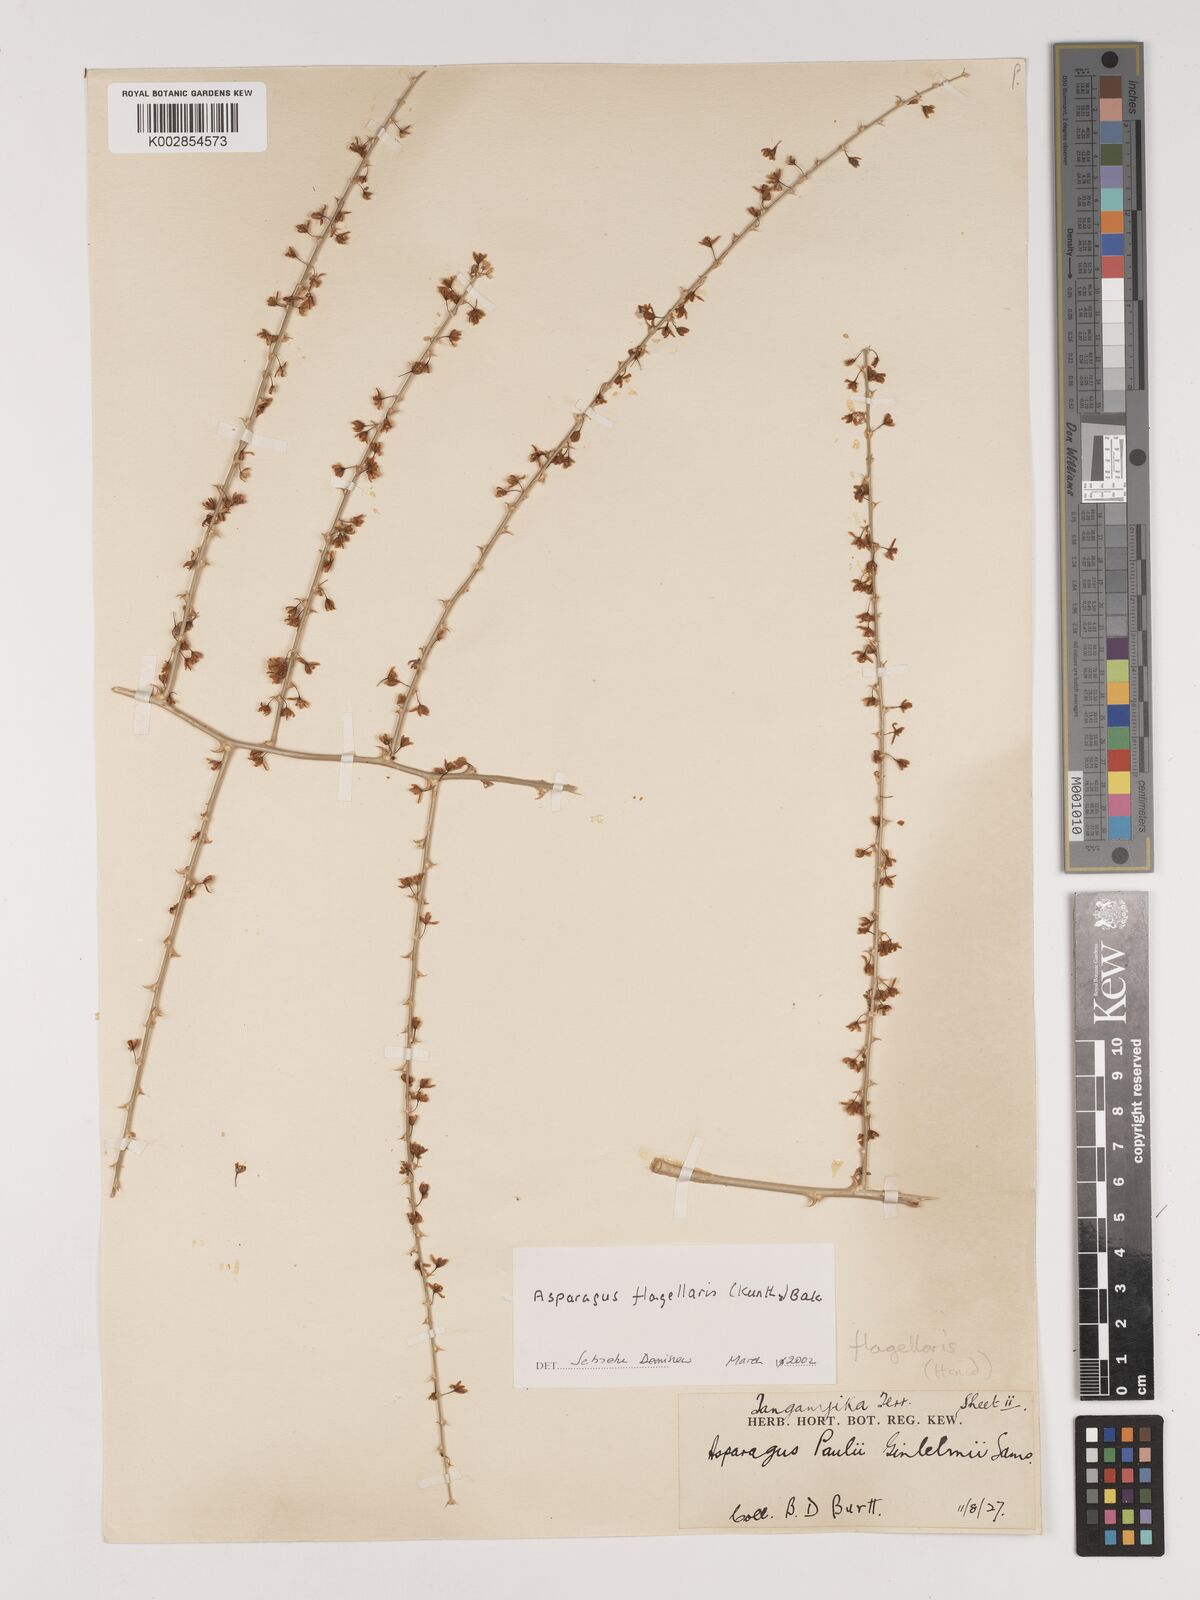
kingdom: Plantae
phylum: Tracheophyta
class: Liliopsida
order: Asparagales
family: Asparagaceae
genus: Asparagus
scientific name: Asparagus flagellaris
